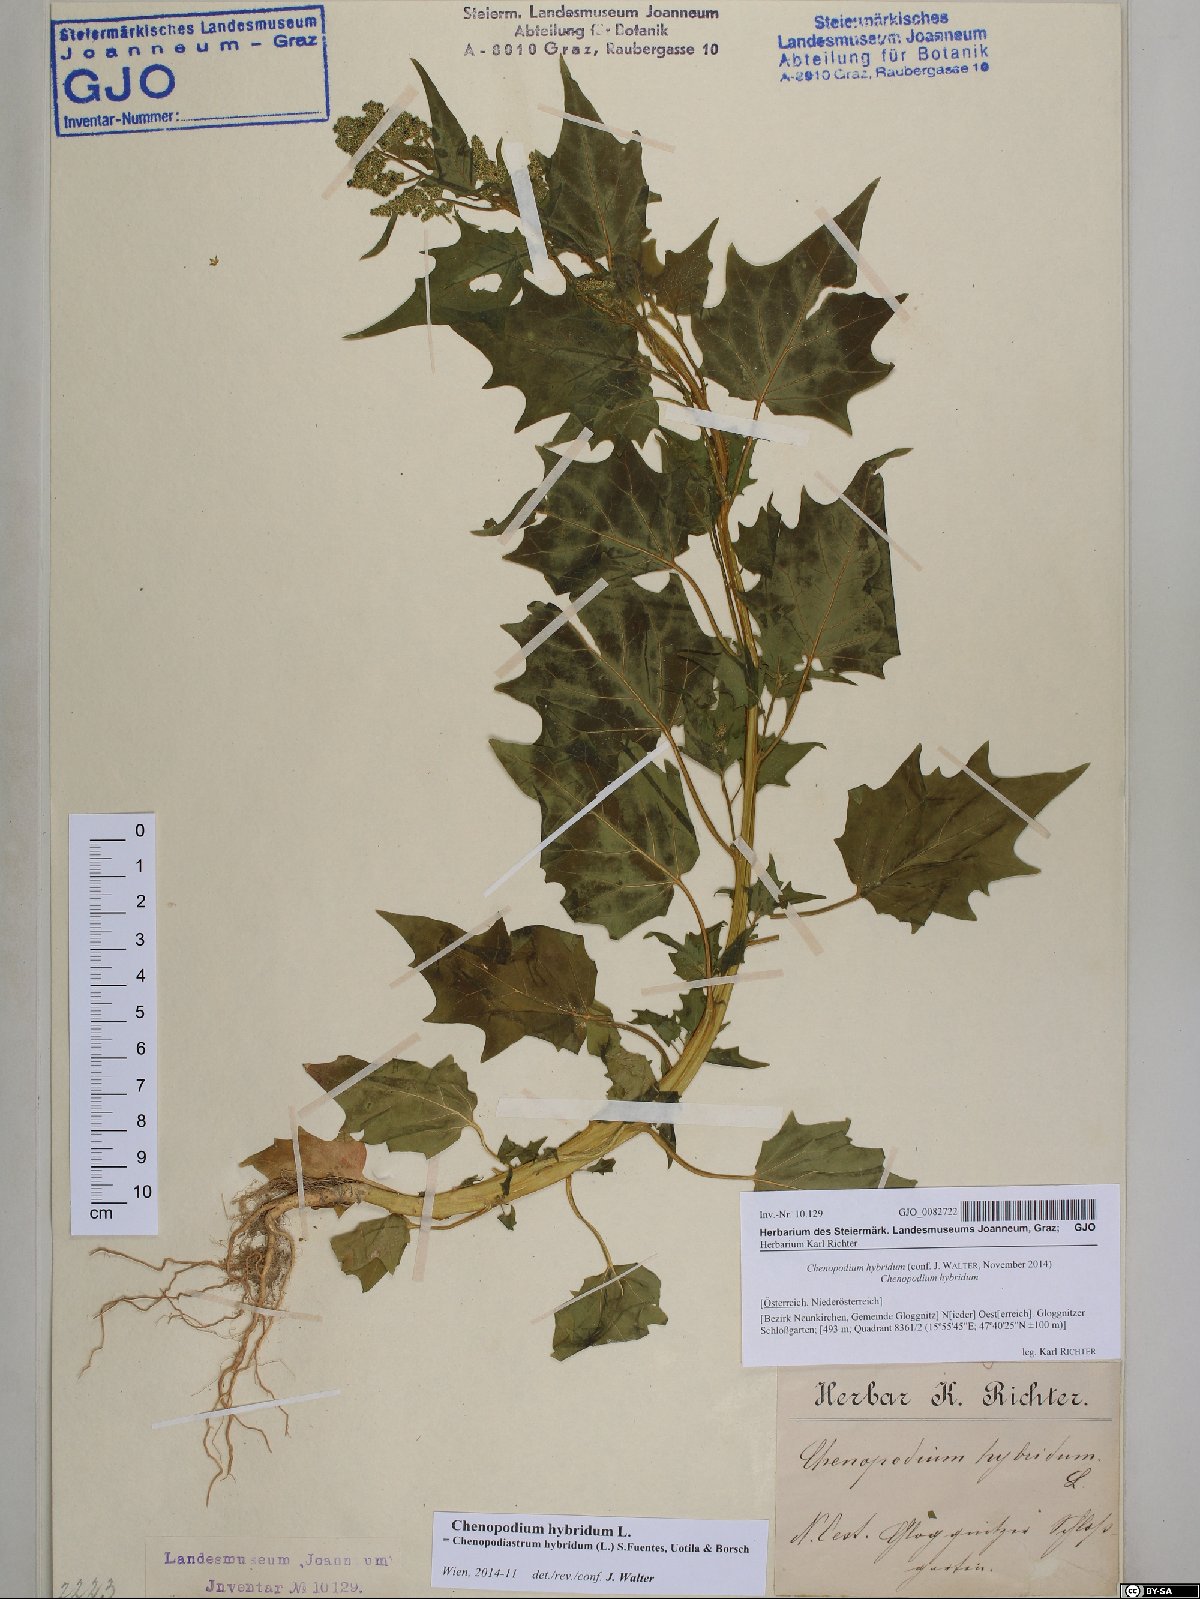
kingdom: Plantae
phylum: Tracheophyta
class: Magnoliopsida
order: Caryophyllales
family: Amaranthaceae
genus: Chenopodiastrum
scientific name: Chenopodiastrum hybridum
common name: Mapleleaf goosefoot
